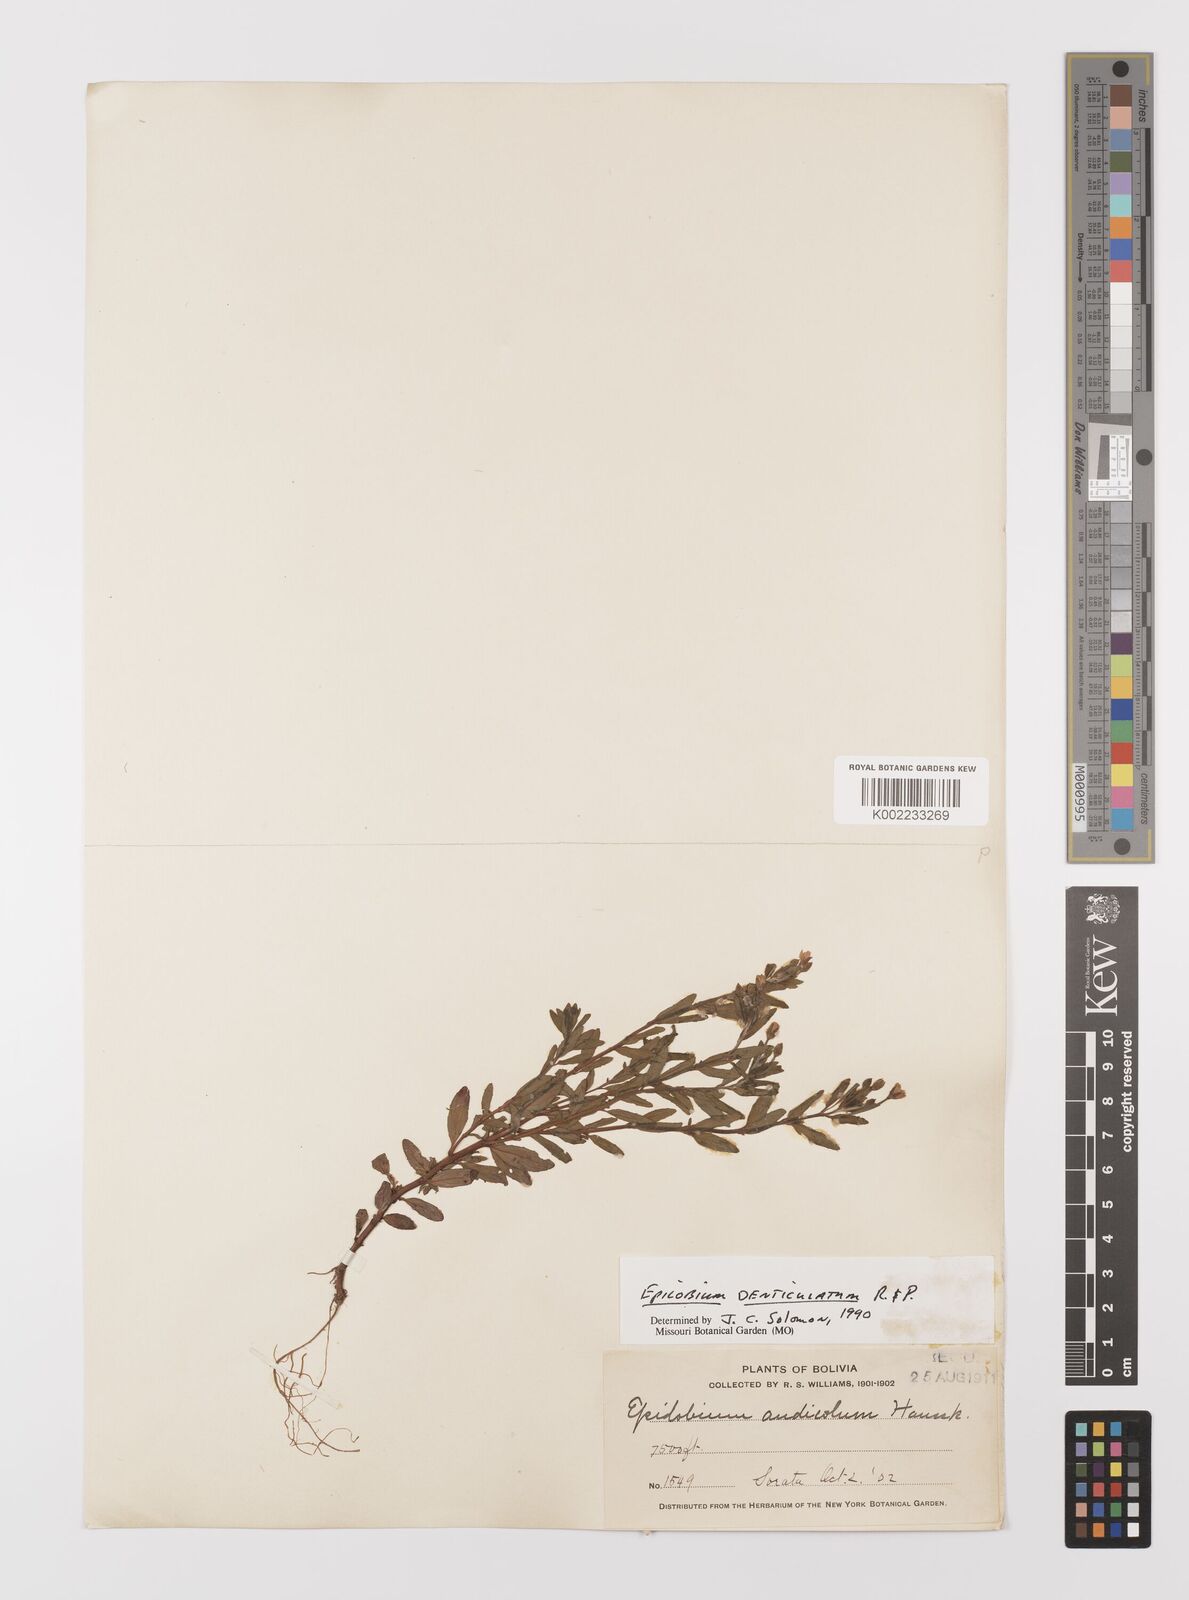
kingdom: Plantae
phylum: Tracheophyta
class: Magnoliopsida
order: Myrtales
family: Onagraceae
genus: Epilobium
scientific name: Epilobium
